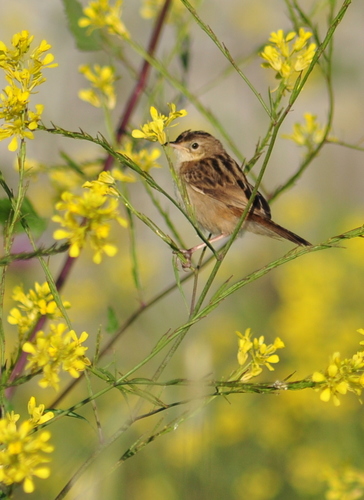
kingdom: Animalia
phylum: Chordata
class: Aves
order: Passeriformes
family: Cisticolidae
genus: Cisticola
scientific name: Cisticola juncidis
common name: Zitting cisticola
